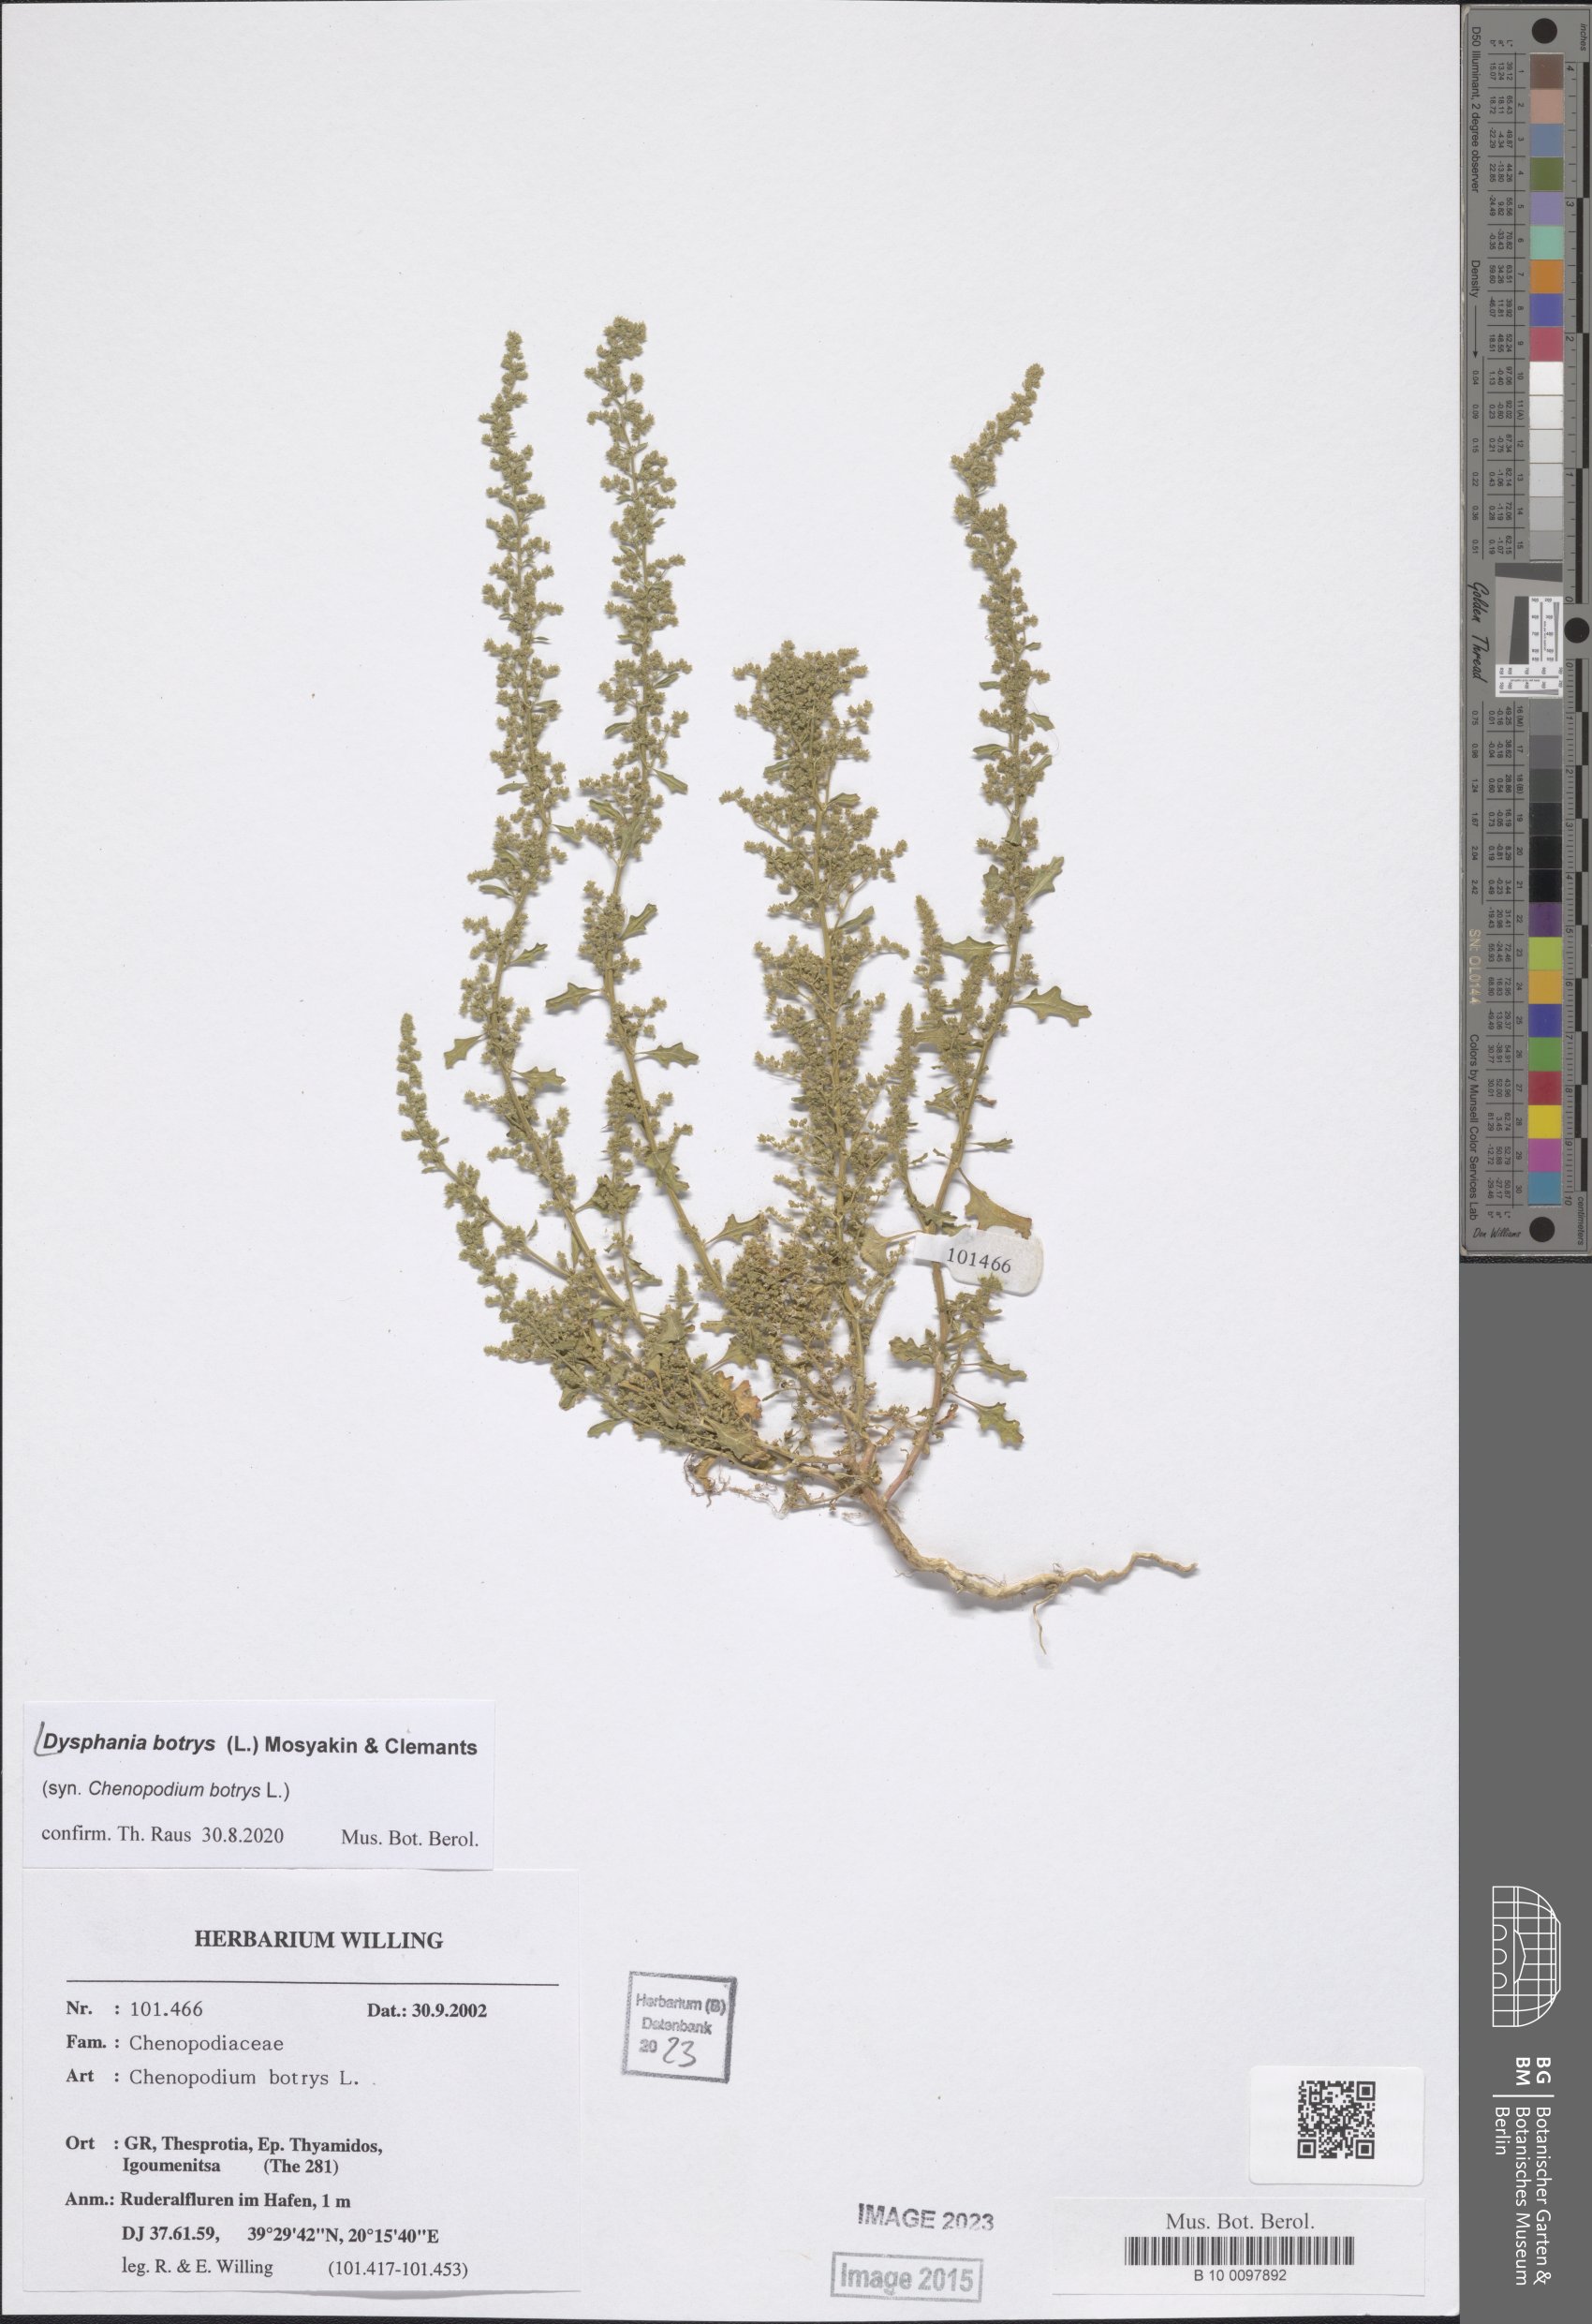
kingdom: Plantae
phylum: Tracheophyta
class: Magnoliopsida
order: Caryophyllales
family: Amaranthaceae
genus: Dysphania
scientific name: Dysphania botrys
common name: Feather-geranium
